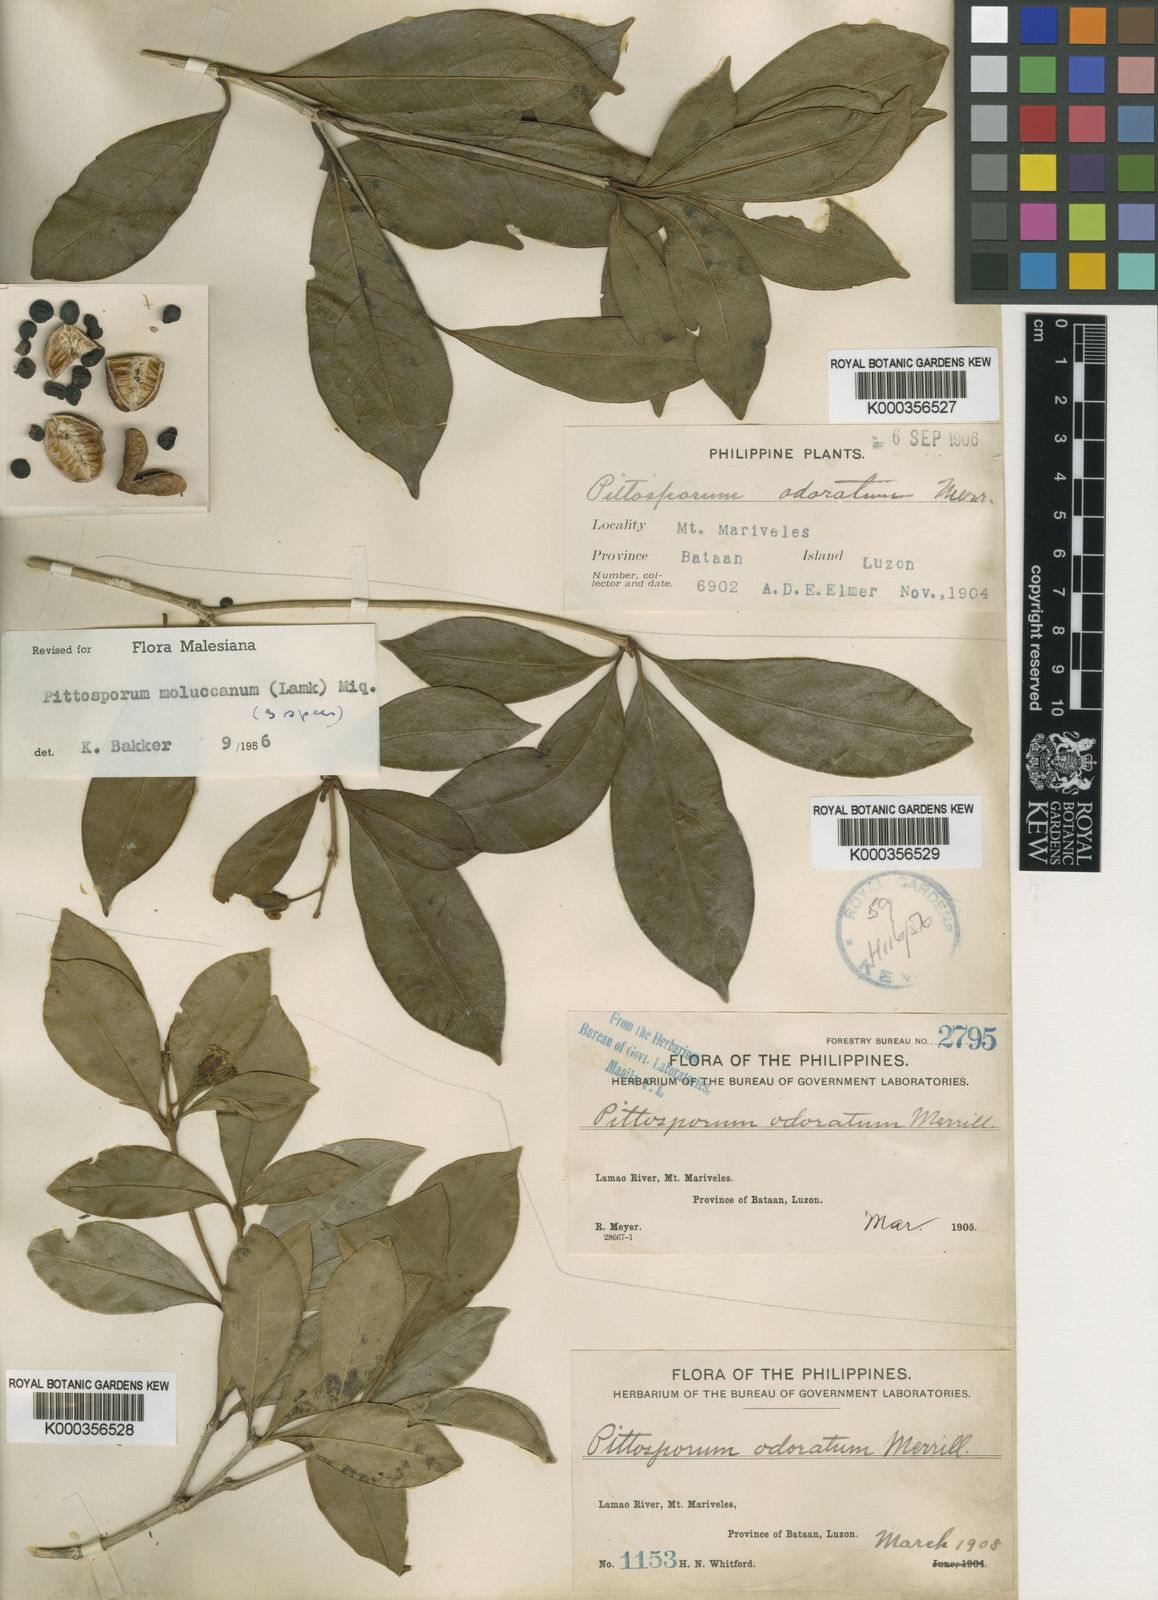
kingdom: Plantae
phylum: Tracheophyta
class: Magnoliopsida
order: Apiales
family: Pittosporaceae
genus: Pittosporum
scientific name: Pittosporum moluccanum
